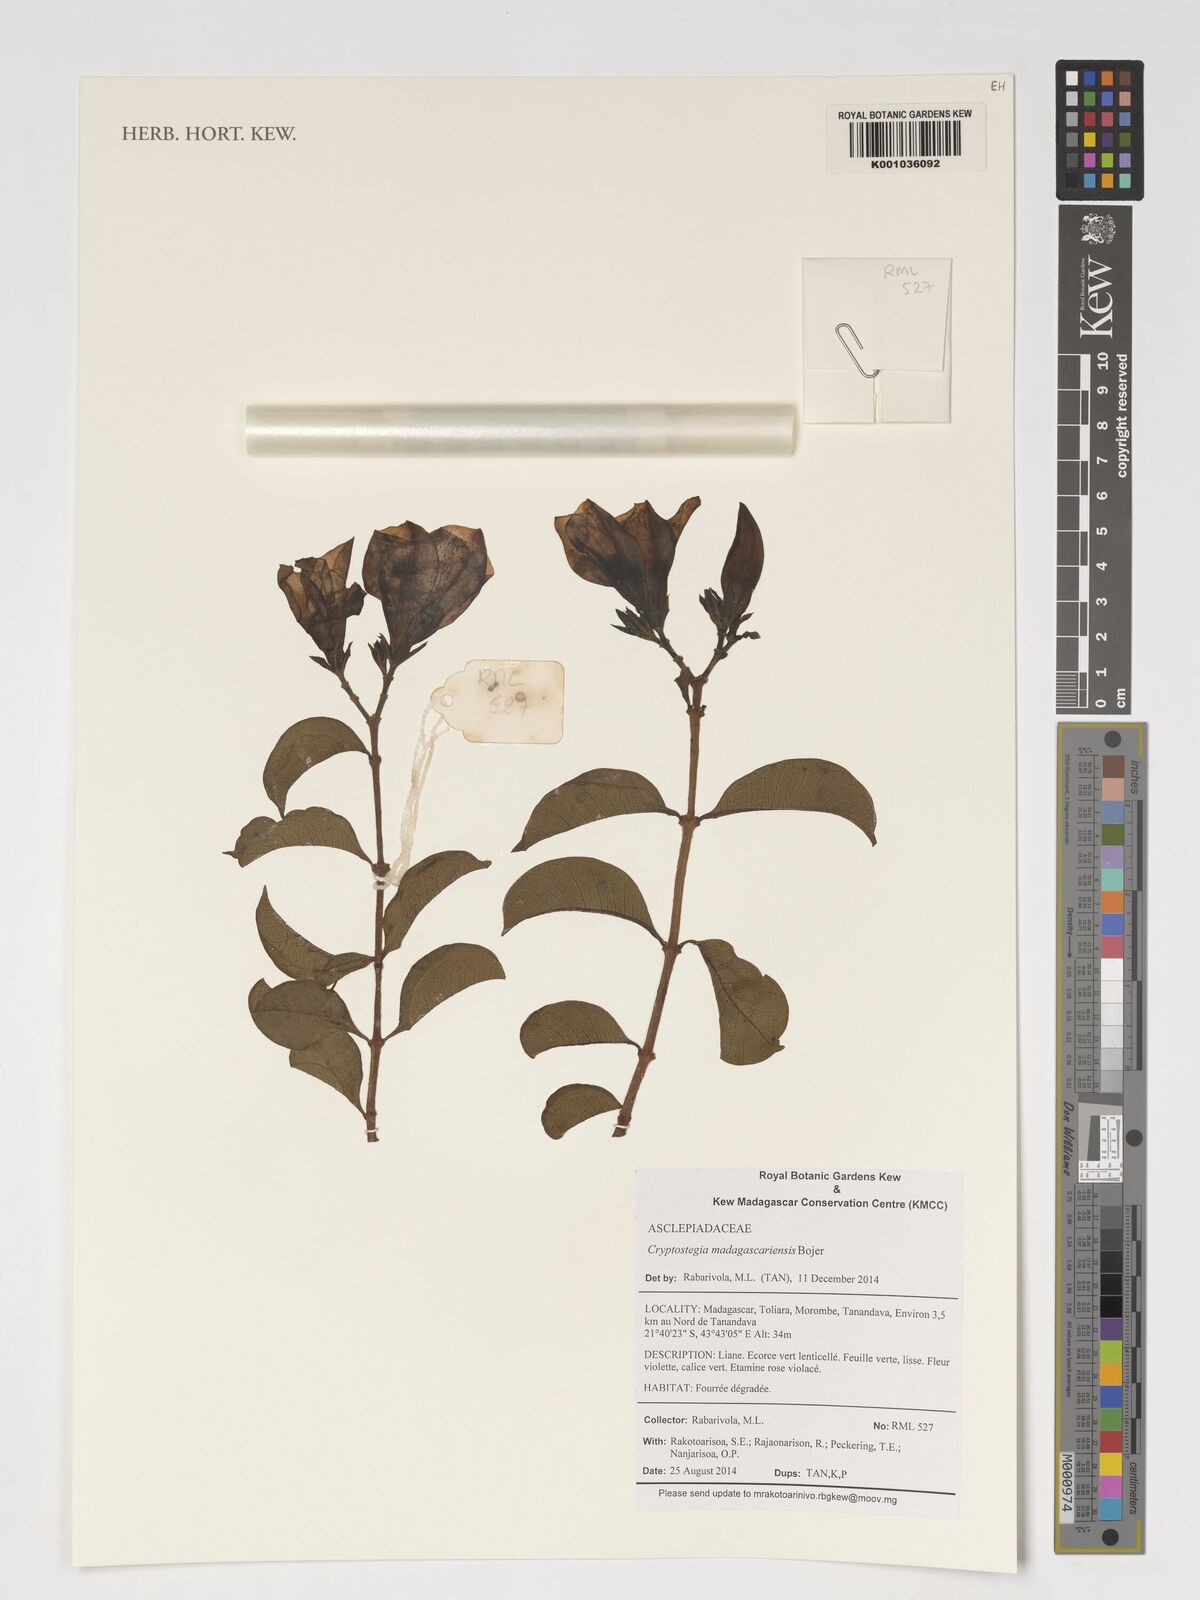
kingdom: Plantae
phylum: Tracheophyta
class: Magnoliopsida
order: Gentianales
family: Apocynaceae
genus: Cryptostegia
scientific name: Cryptostegia madagascariensis
